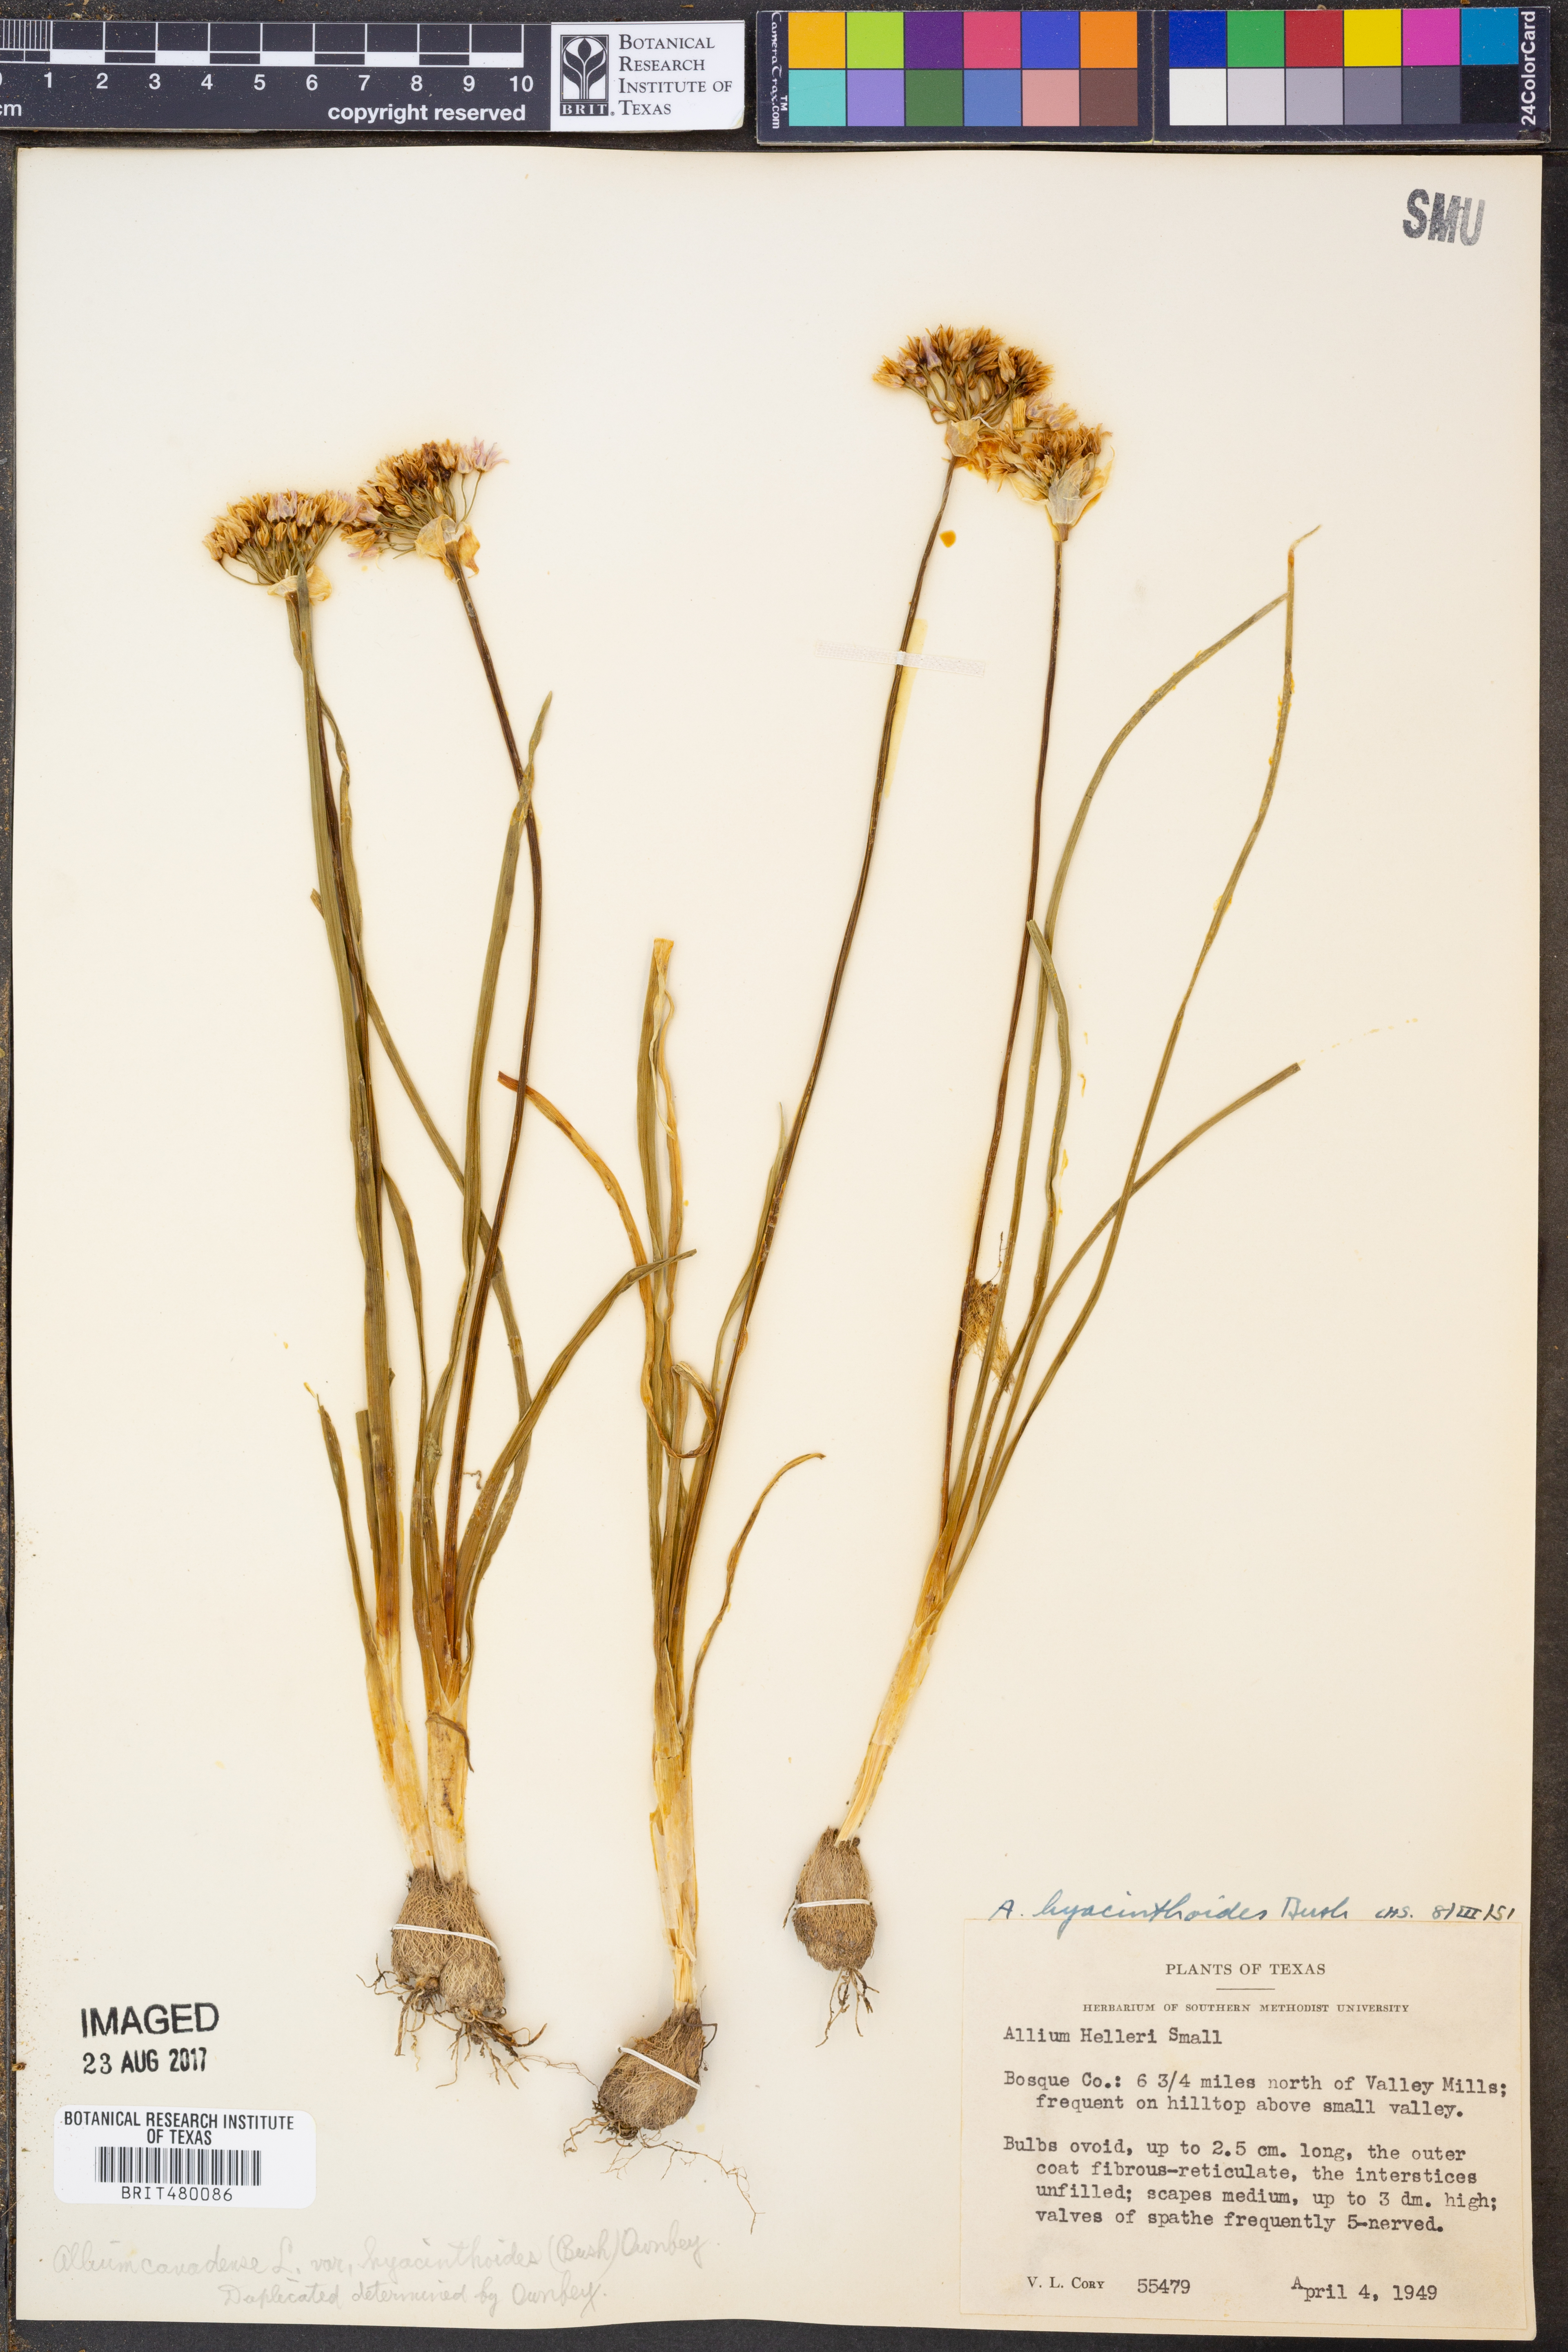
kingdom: Plantae
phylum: Tracheophyta
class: Liliopsida
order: Asparagales
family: Amaryllidaceae
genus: Allium
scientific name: Allium canadense
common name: Meadow garlic
